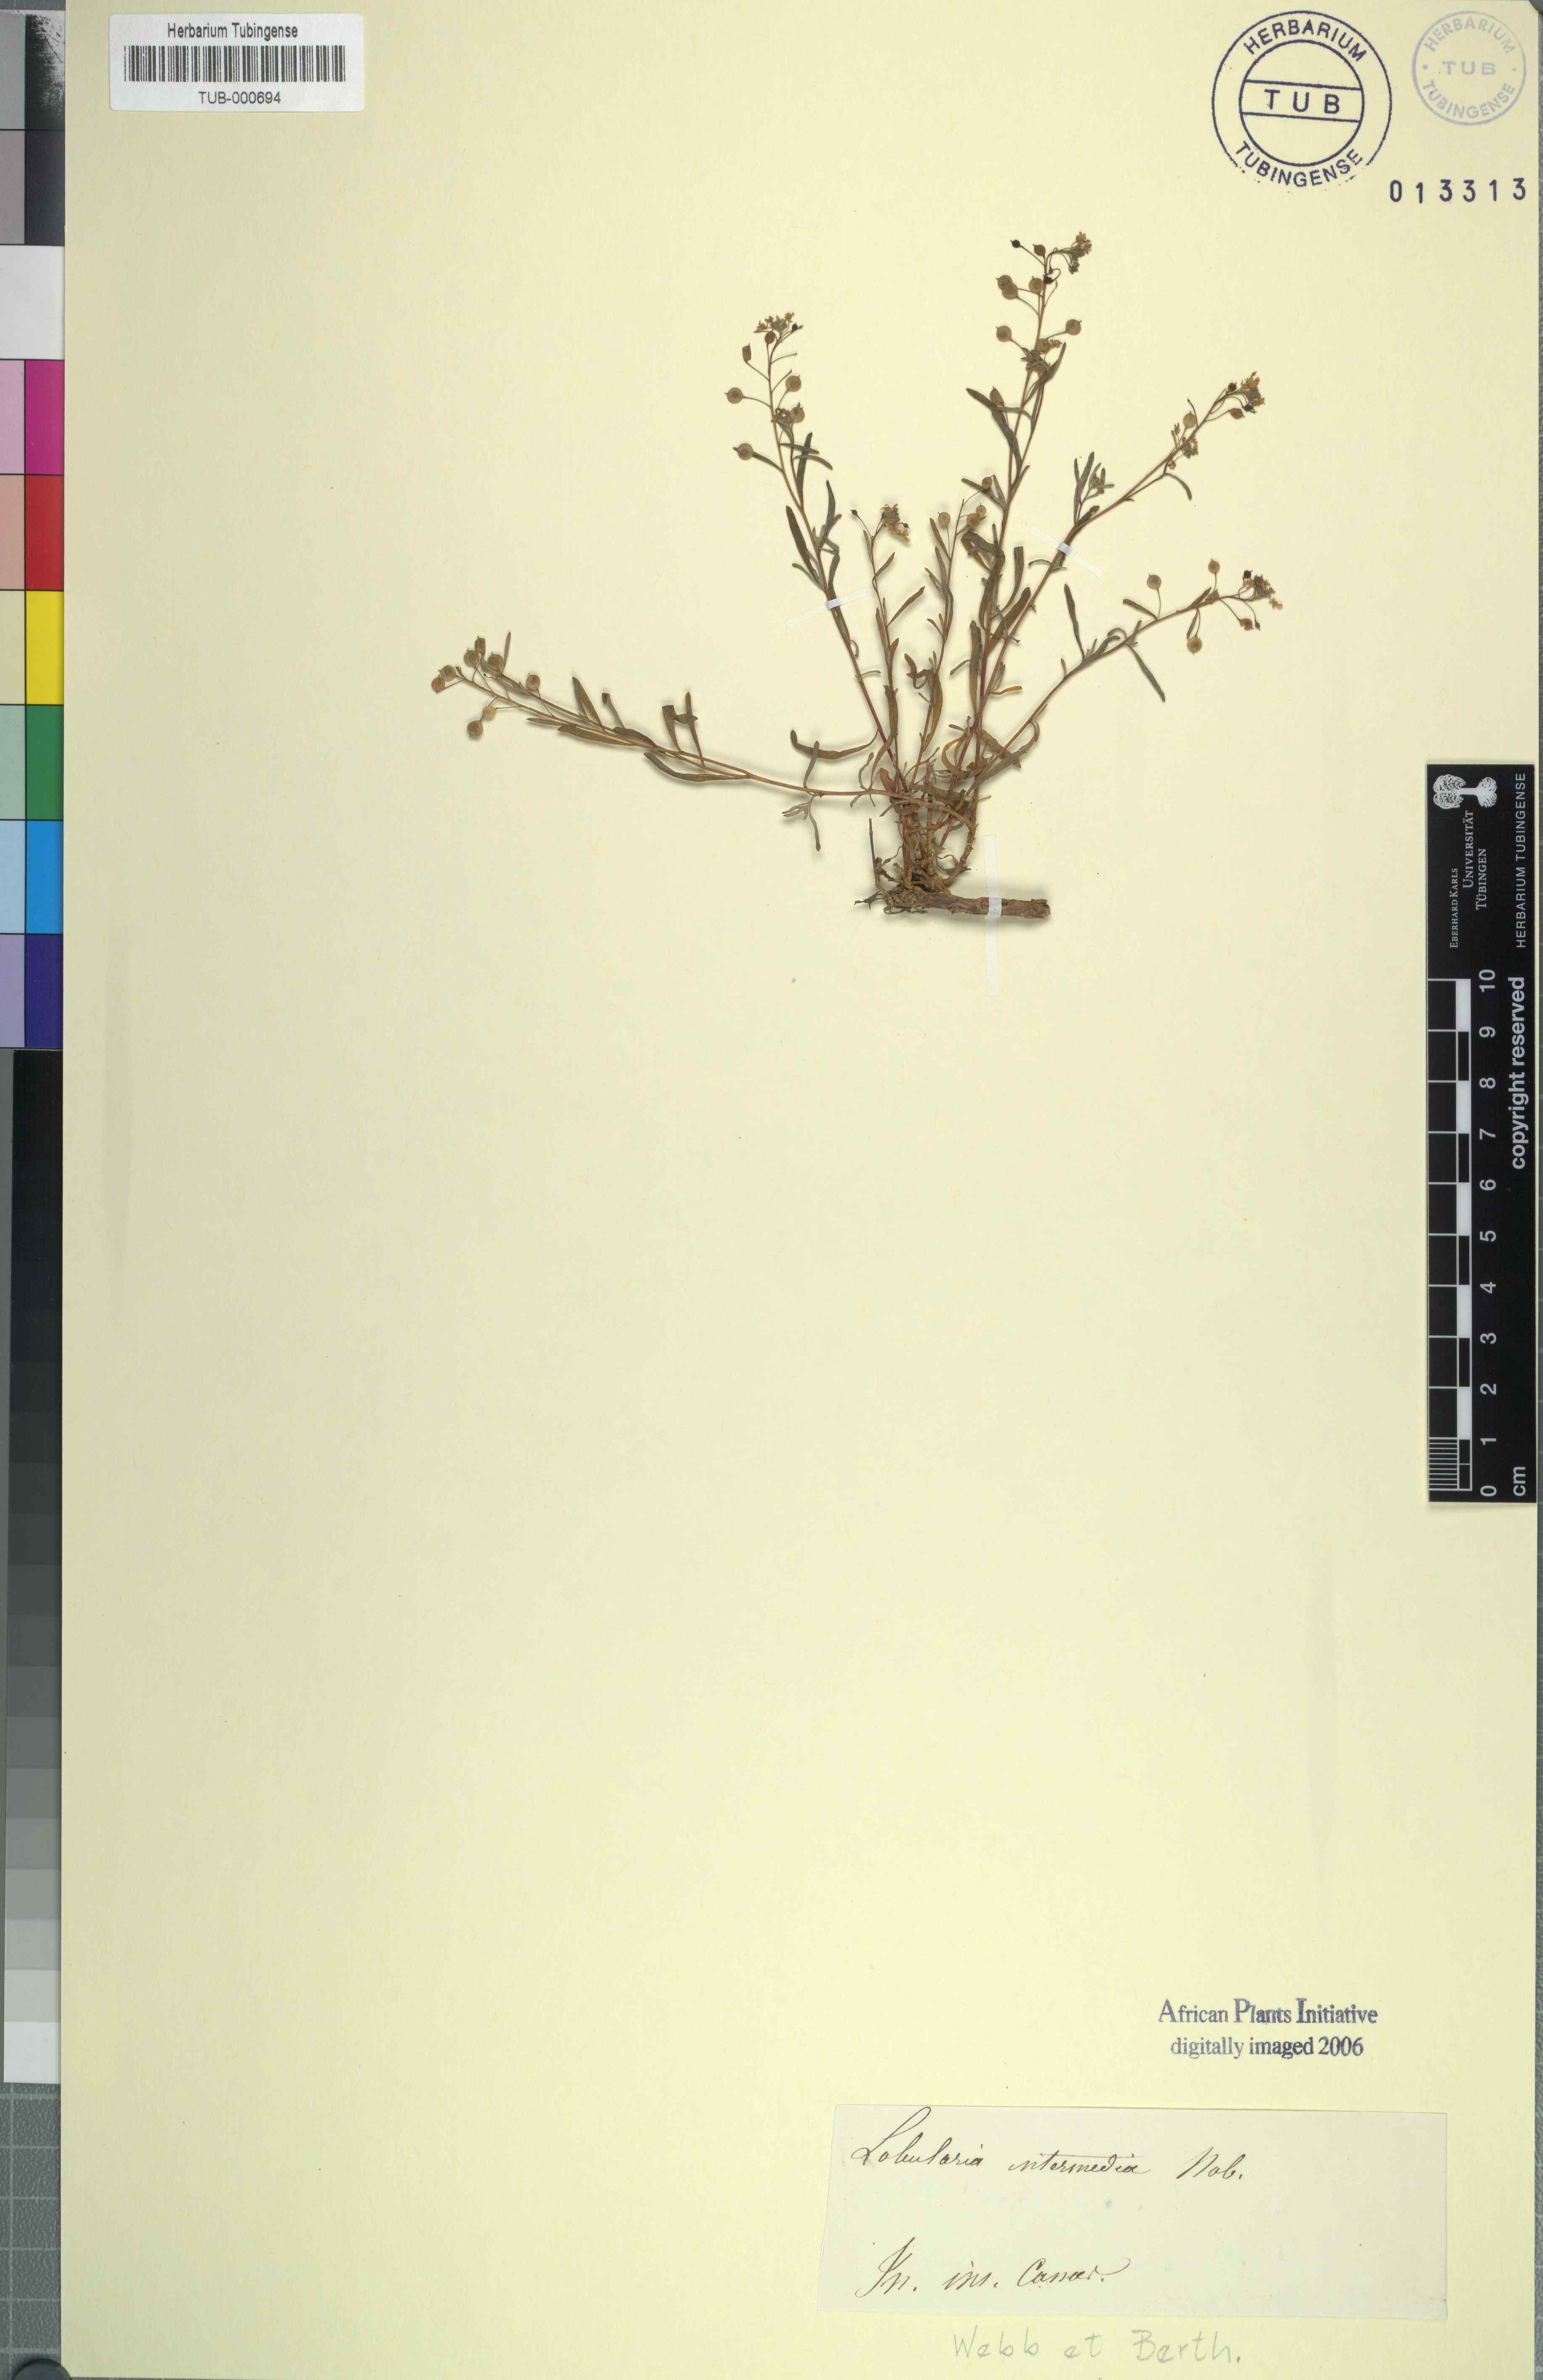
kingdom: Plantae
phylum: Tracheophyta
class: Magnoliopsida
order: Brassicales
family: Brassicaceae
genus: Lobularia
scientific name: Lobularia canariensis
